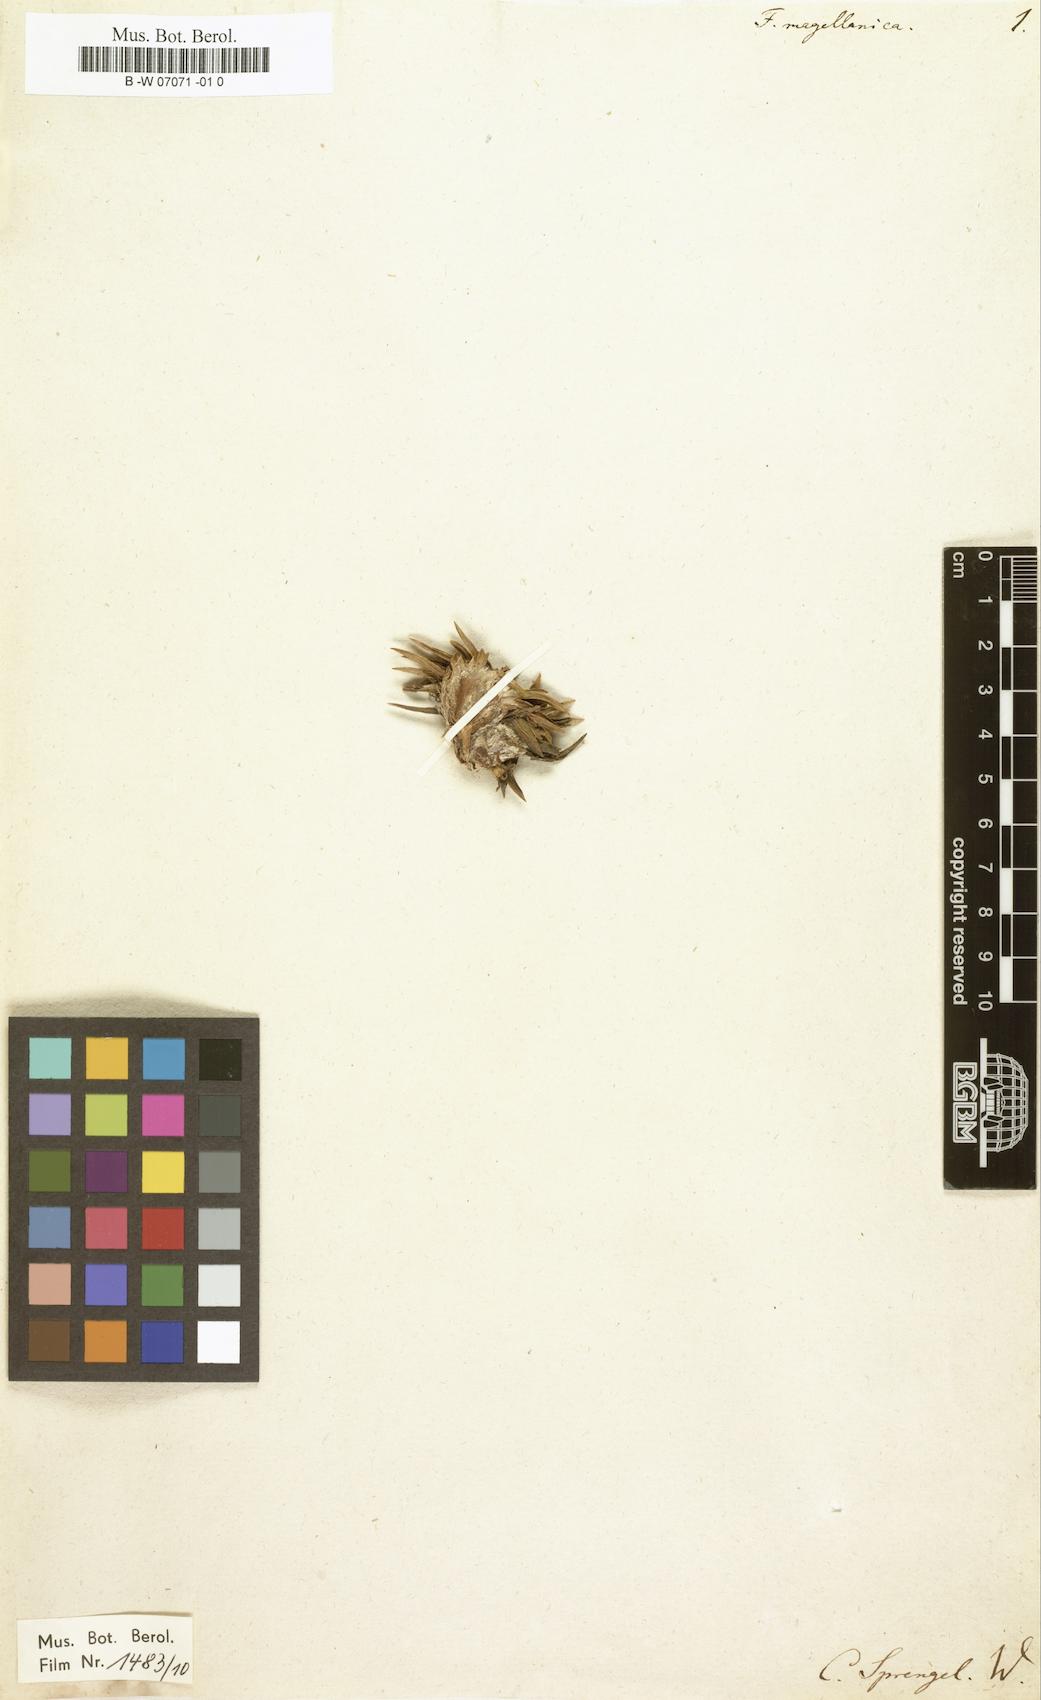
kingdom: Plantae
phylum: Tracheophyta
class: Liliopsida
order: Asparagales
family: Asteliaceae
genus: Astelia
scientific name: Astelia pumila
